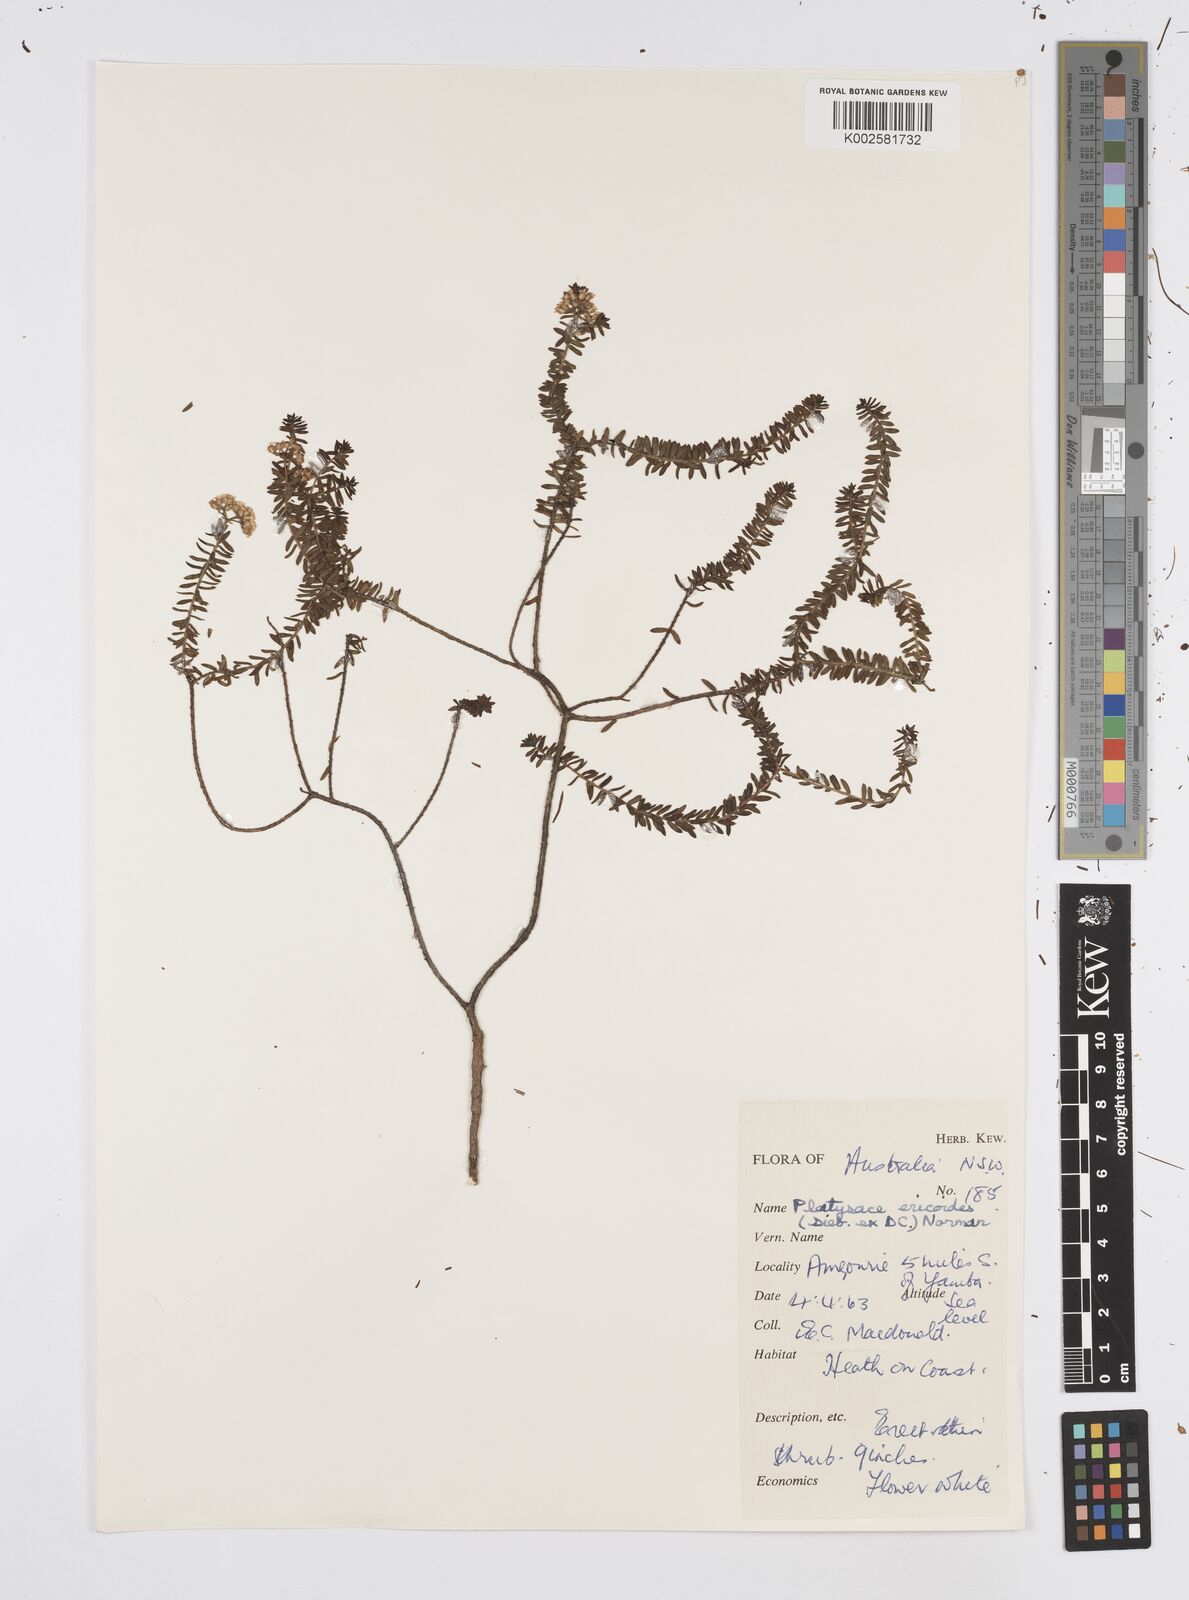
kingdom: Plantae
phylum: Tracheophyta
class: Magnoliopsida
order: Apiales
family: Apiaceae
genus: Platysace
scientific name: Platysace ericoides
